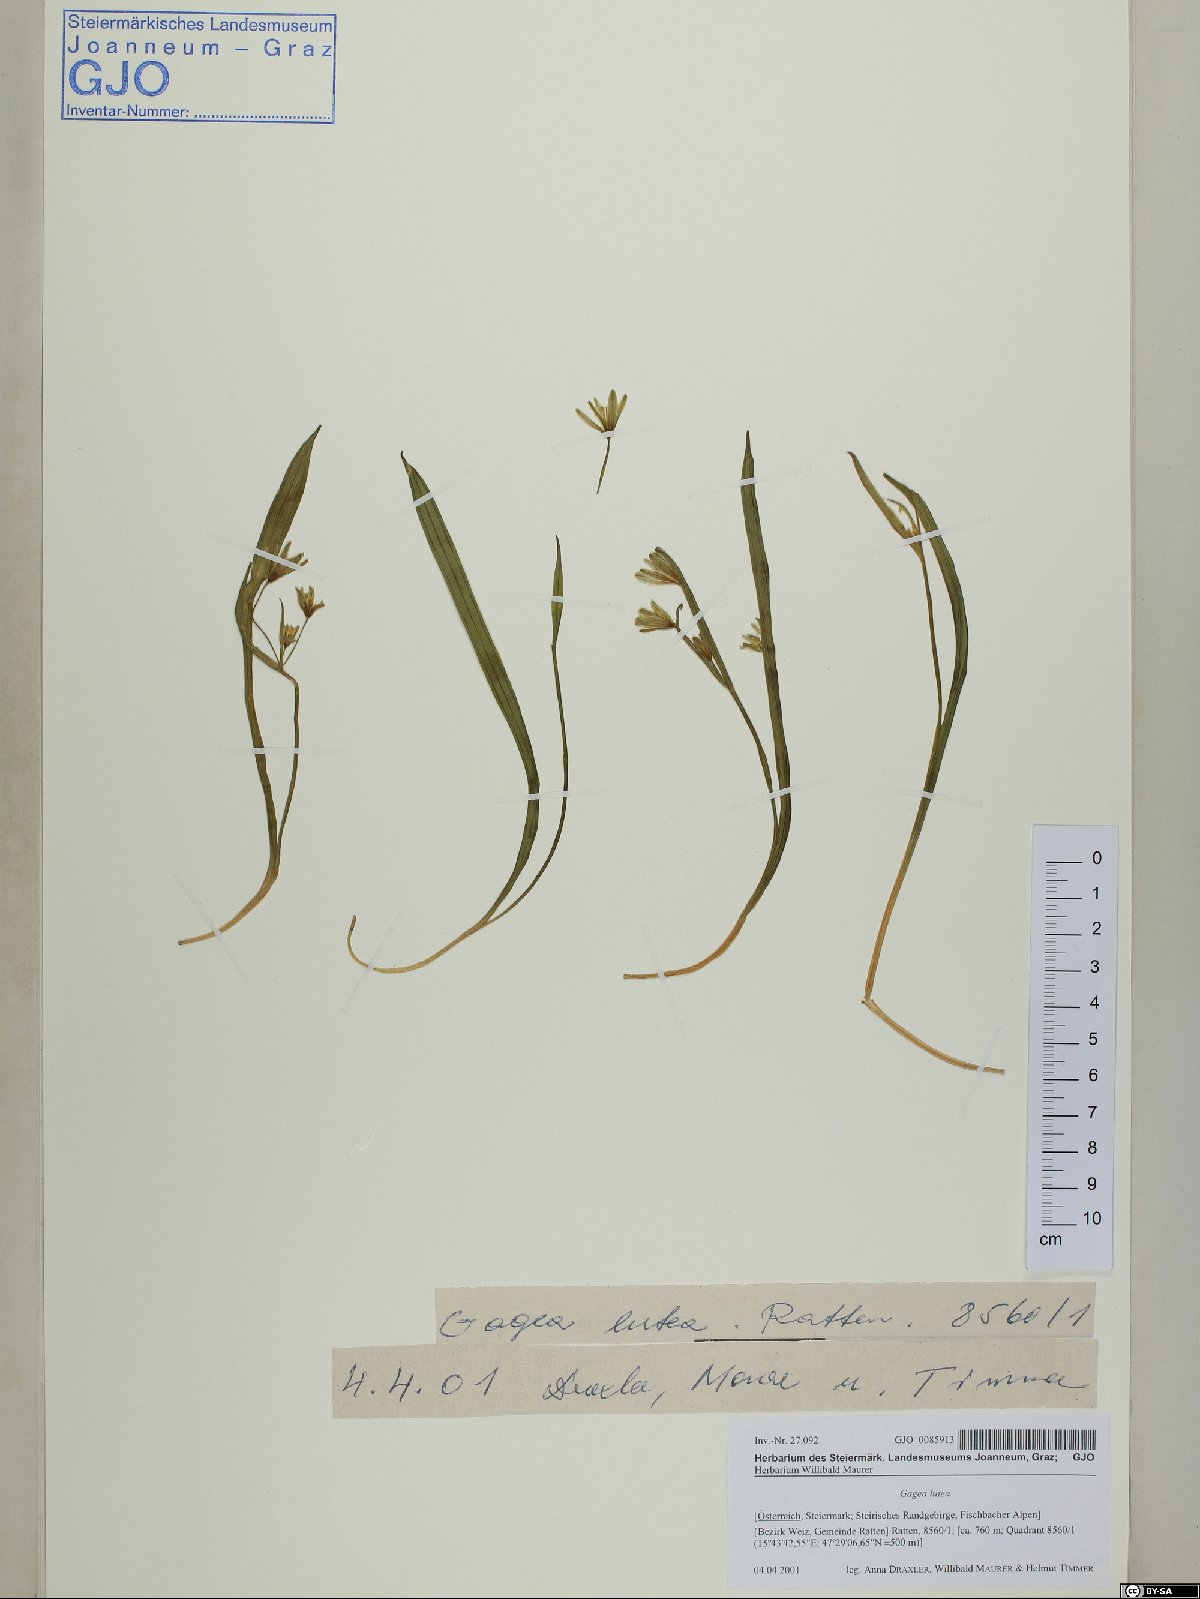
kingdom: Plantae
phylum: Tracheophyta
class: Liliopsida
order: Liliales
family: Liliaceae
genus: Gagea
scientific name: Gagea lutea
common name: Yellow star-of-bethlehem
